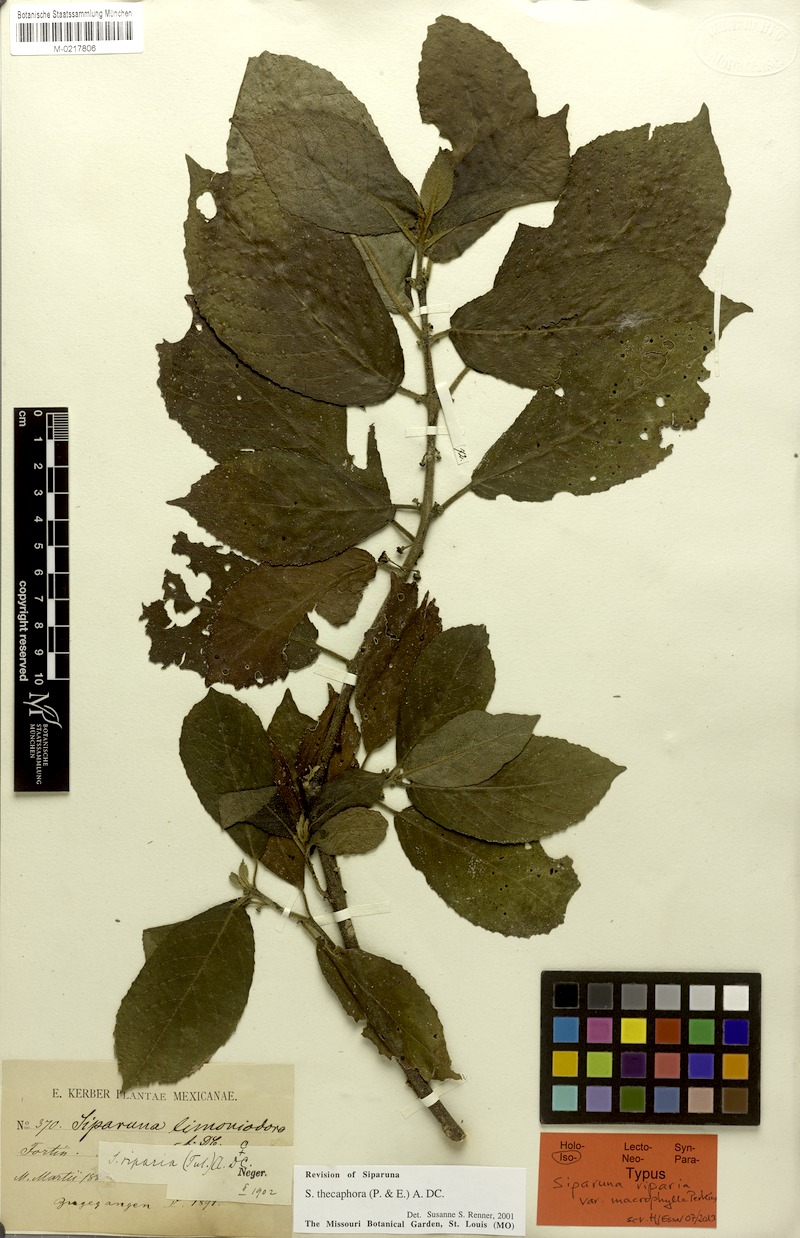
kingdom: Plantae
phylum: Tracheophyta
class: Magnoliopsida
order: Laurales
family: Siparunaceae
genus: Siparuna
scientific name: Siparuna thecaphora
